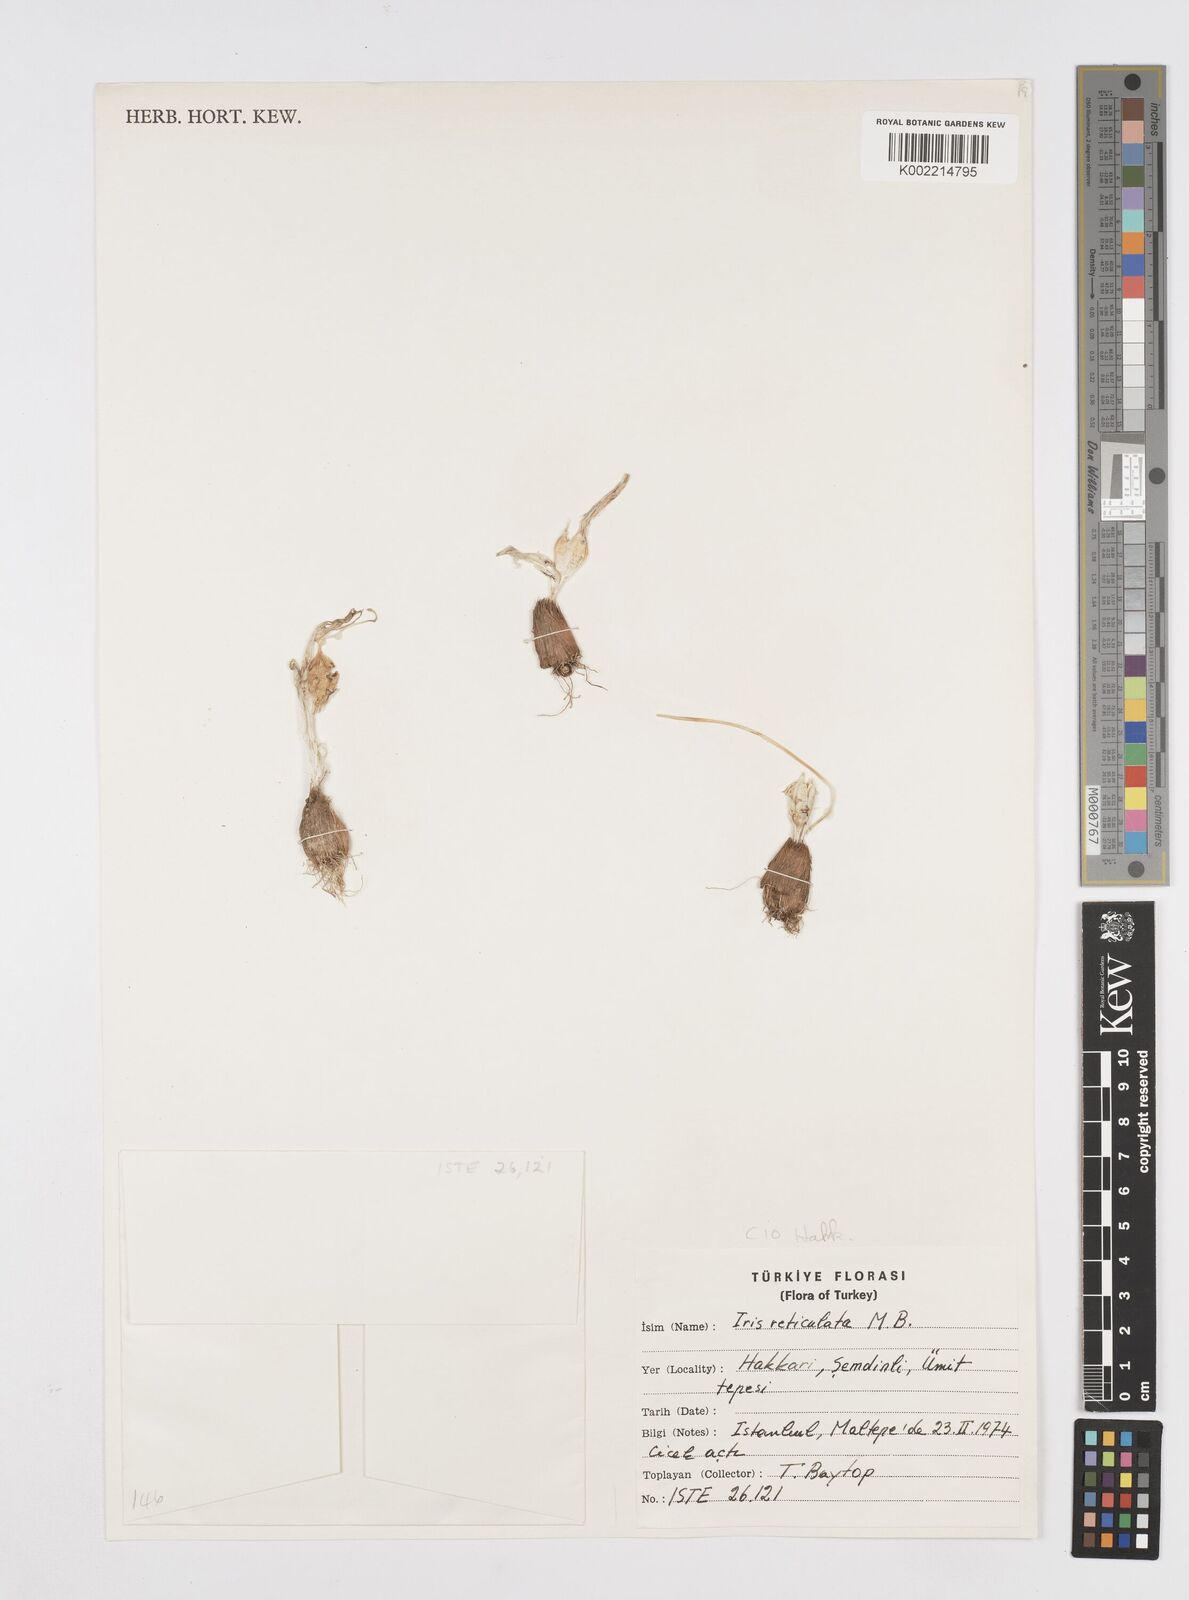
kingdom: Plantae
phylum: Tracheophyta
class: Liliopsida
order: Asparagales
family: Iridaceae
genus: Iris
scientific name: Iris reticulata
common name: Netted iris
